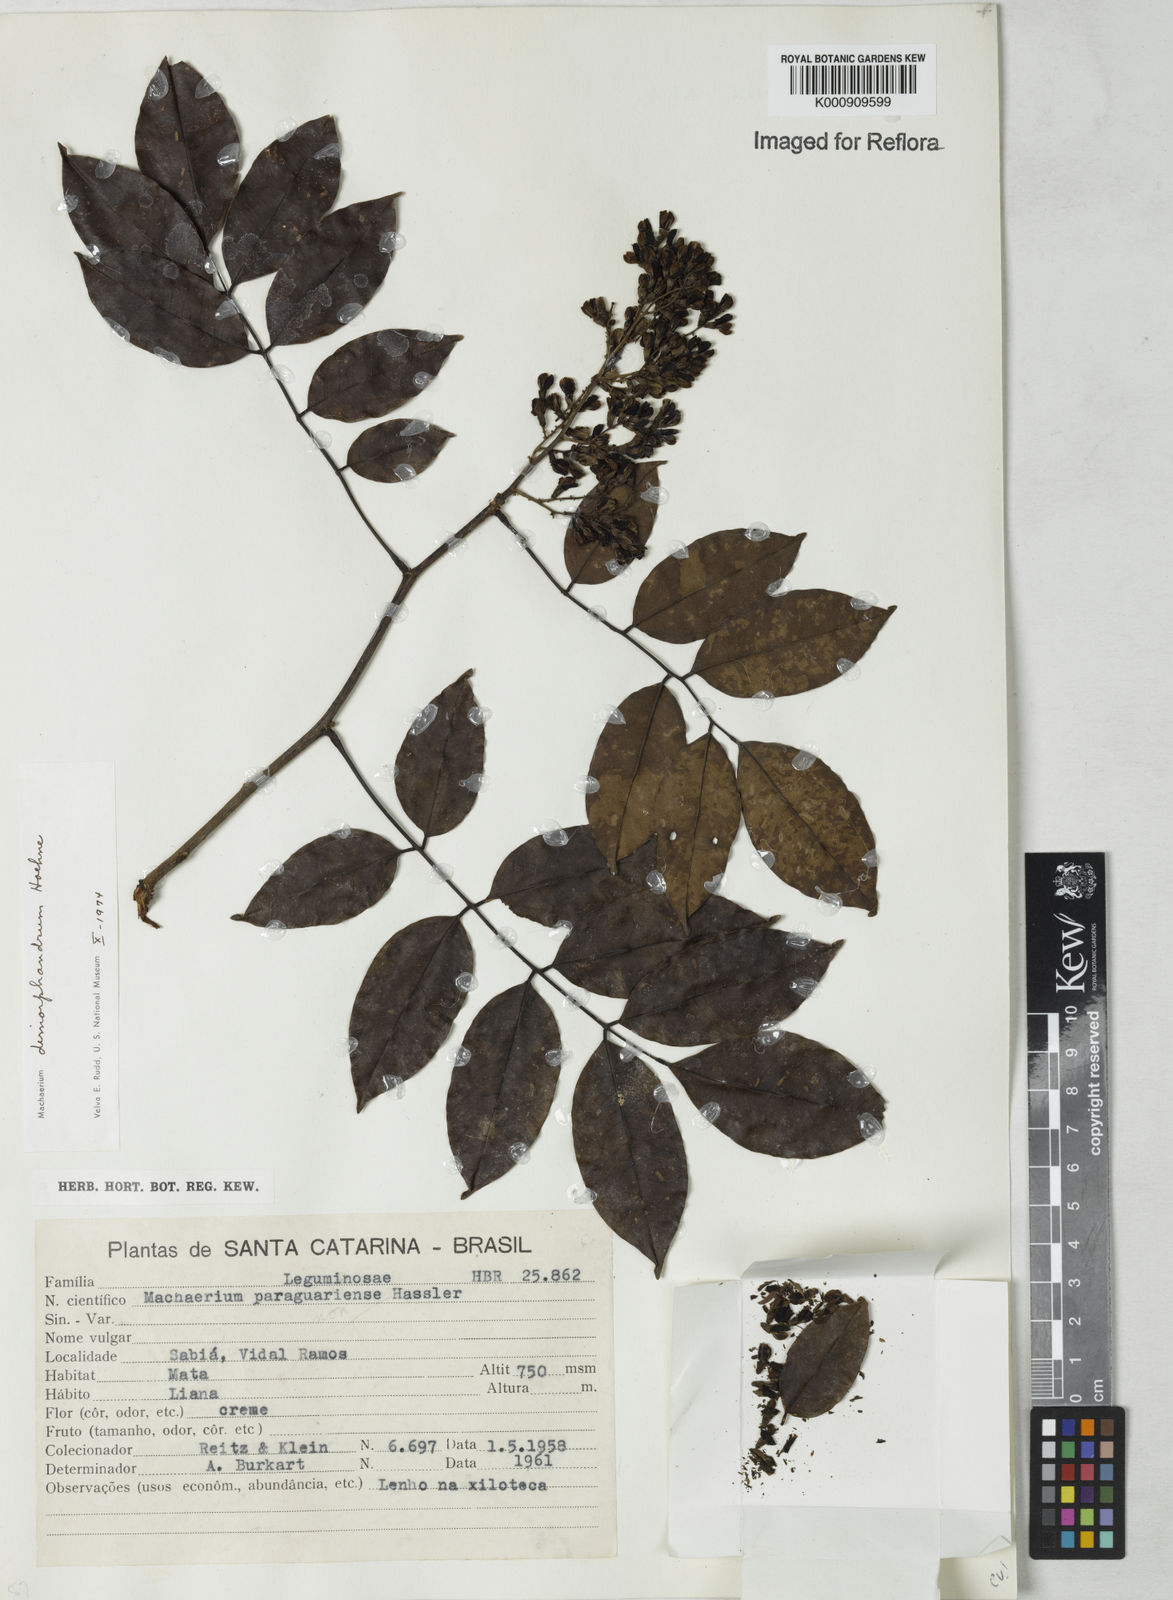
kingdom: Plantae
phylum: Tracheophyta
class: Magnoliopsida
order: Fabales
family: Fabaceae
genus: Machaerium
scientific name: Machaerium debile
